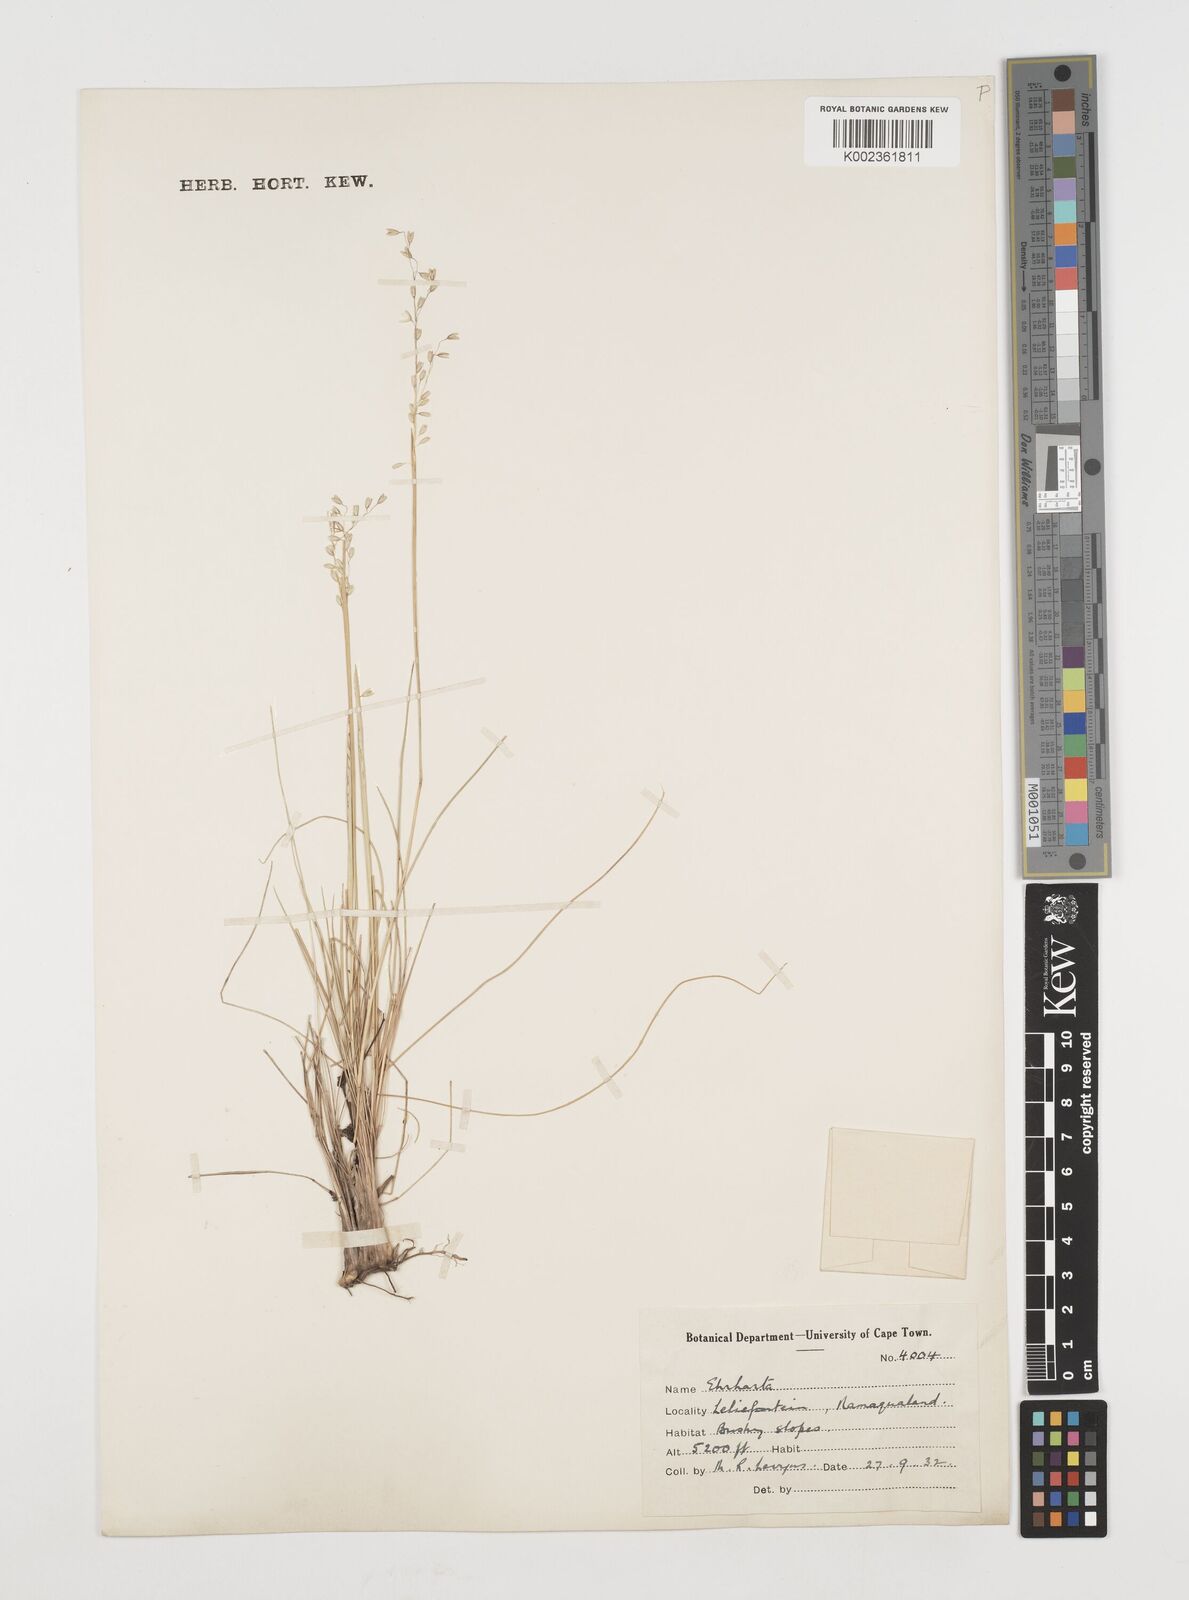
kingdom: Plantae
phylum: Tracheophyta
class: Liliopsida
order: Poales
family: Poaceae
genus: Ehrharta
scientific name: Ehrharta melicoides
